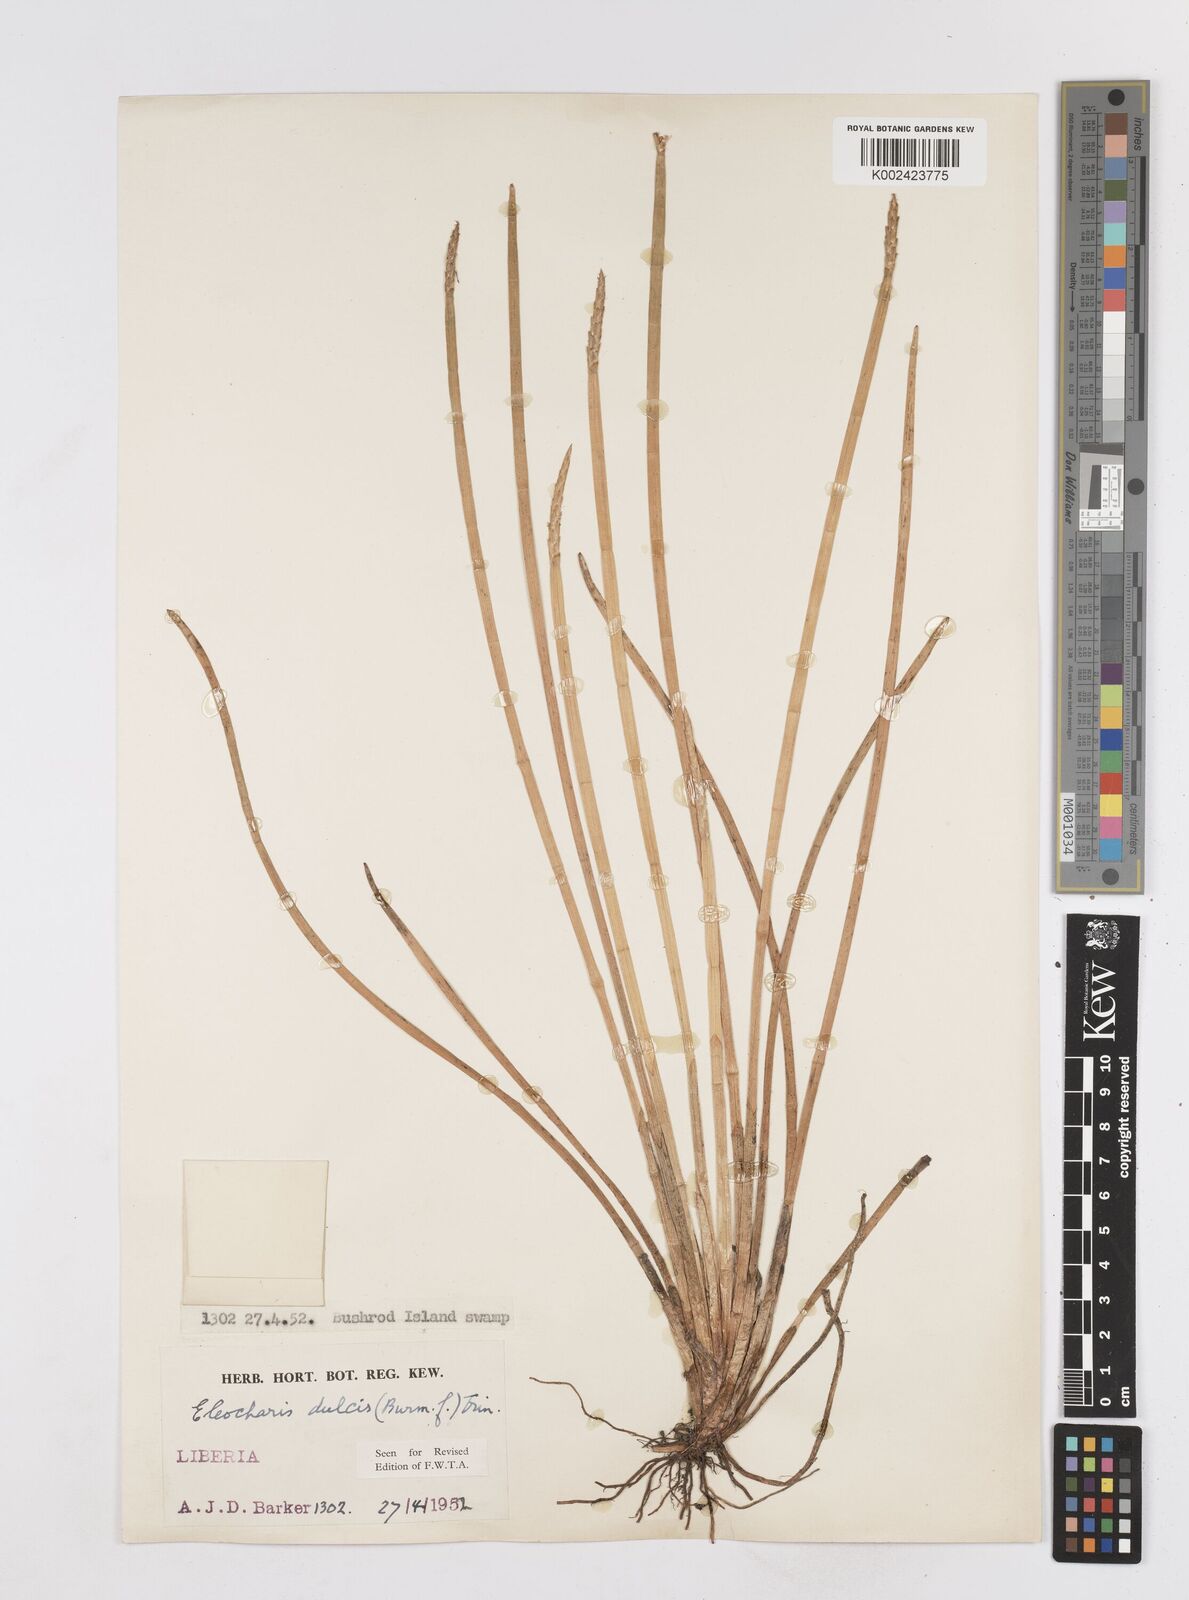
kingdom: Plantae
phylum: Tracheophyta
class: Liliopsida
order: Poales
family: Cyperaceae
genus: Eleocharis
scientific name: Eleocharis dulcis
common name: Chinese water chestnut
